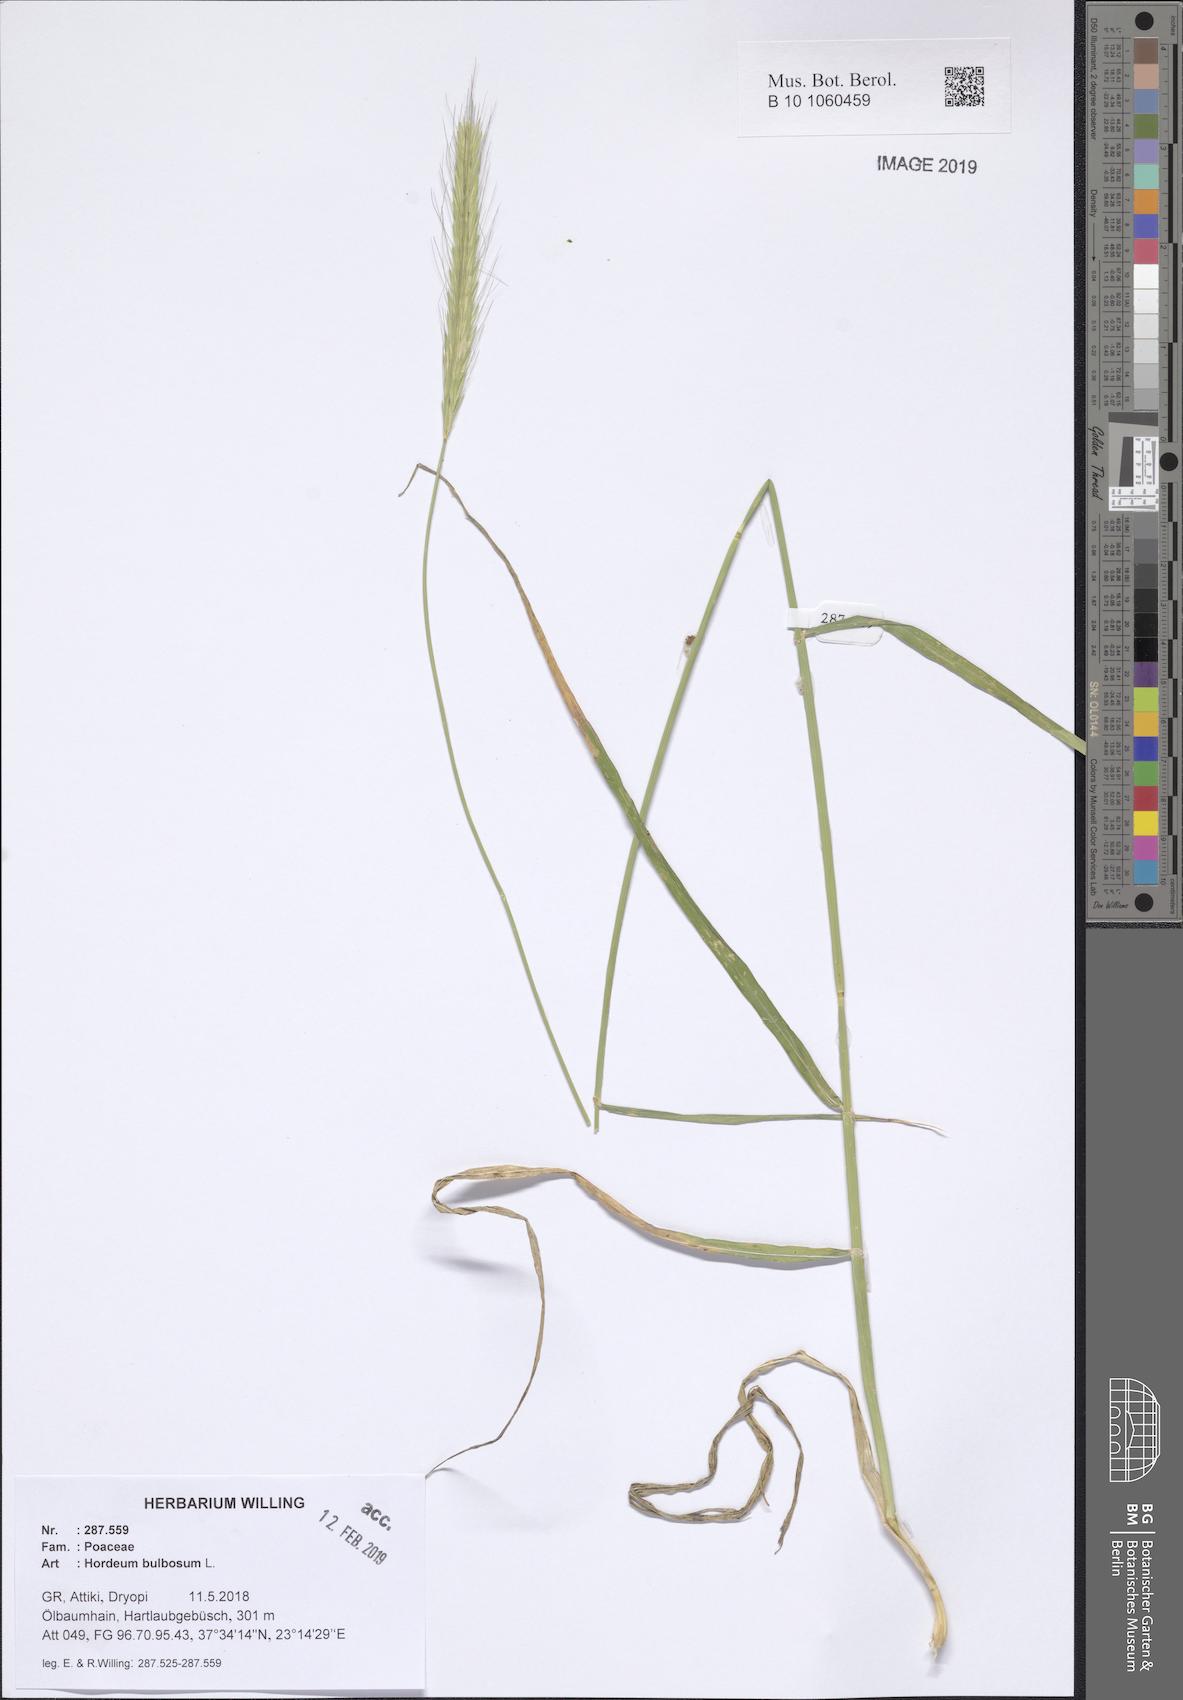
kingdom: Plantae
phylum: Tracheophyta
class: Liliopsida
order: Poales
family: Poaceae
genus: Hordeum
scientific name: Hordeum bulbosum
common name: Bulbous barley
